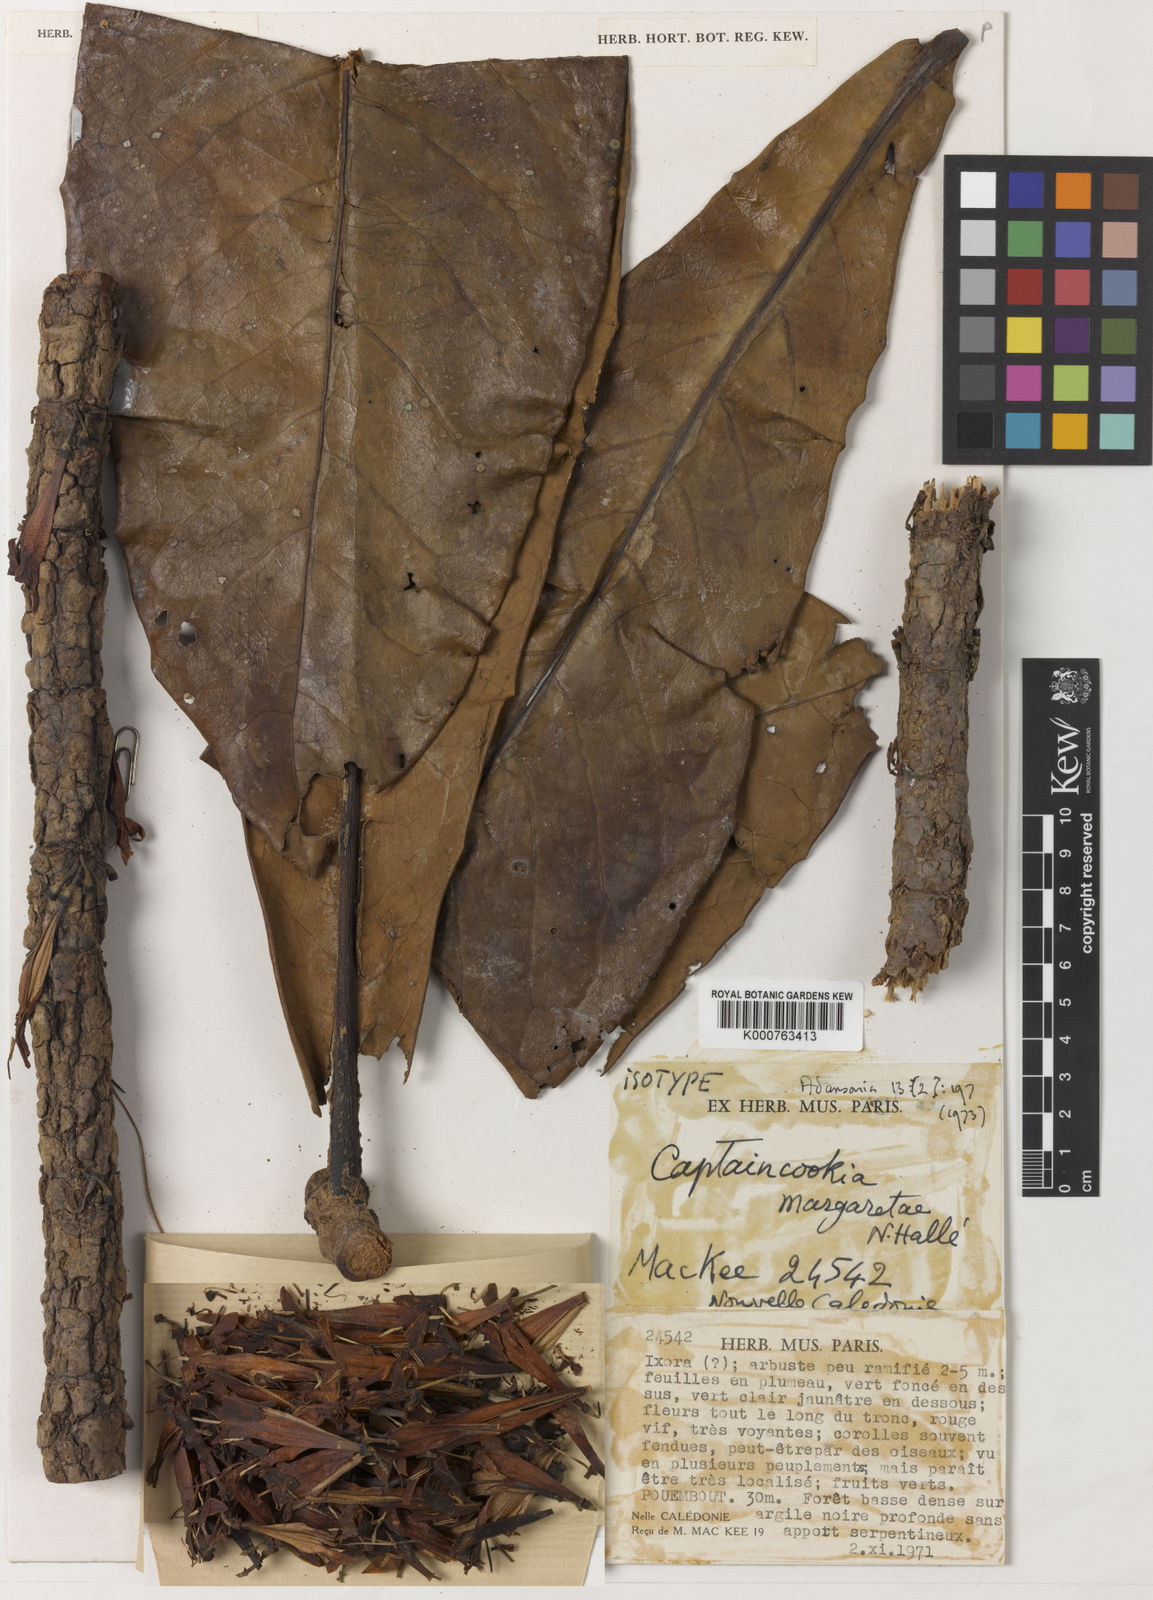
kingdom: Plantae
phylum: Tracheophyta
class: Magnoliopsida
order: Gentianales
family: Rubiaceae
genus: Ixora
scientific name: Ixora
